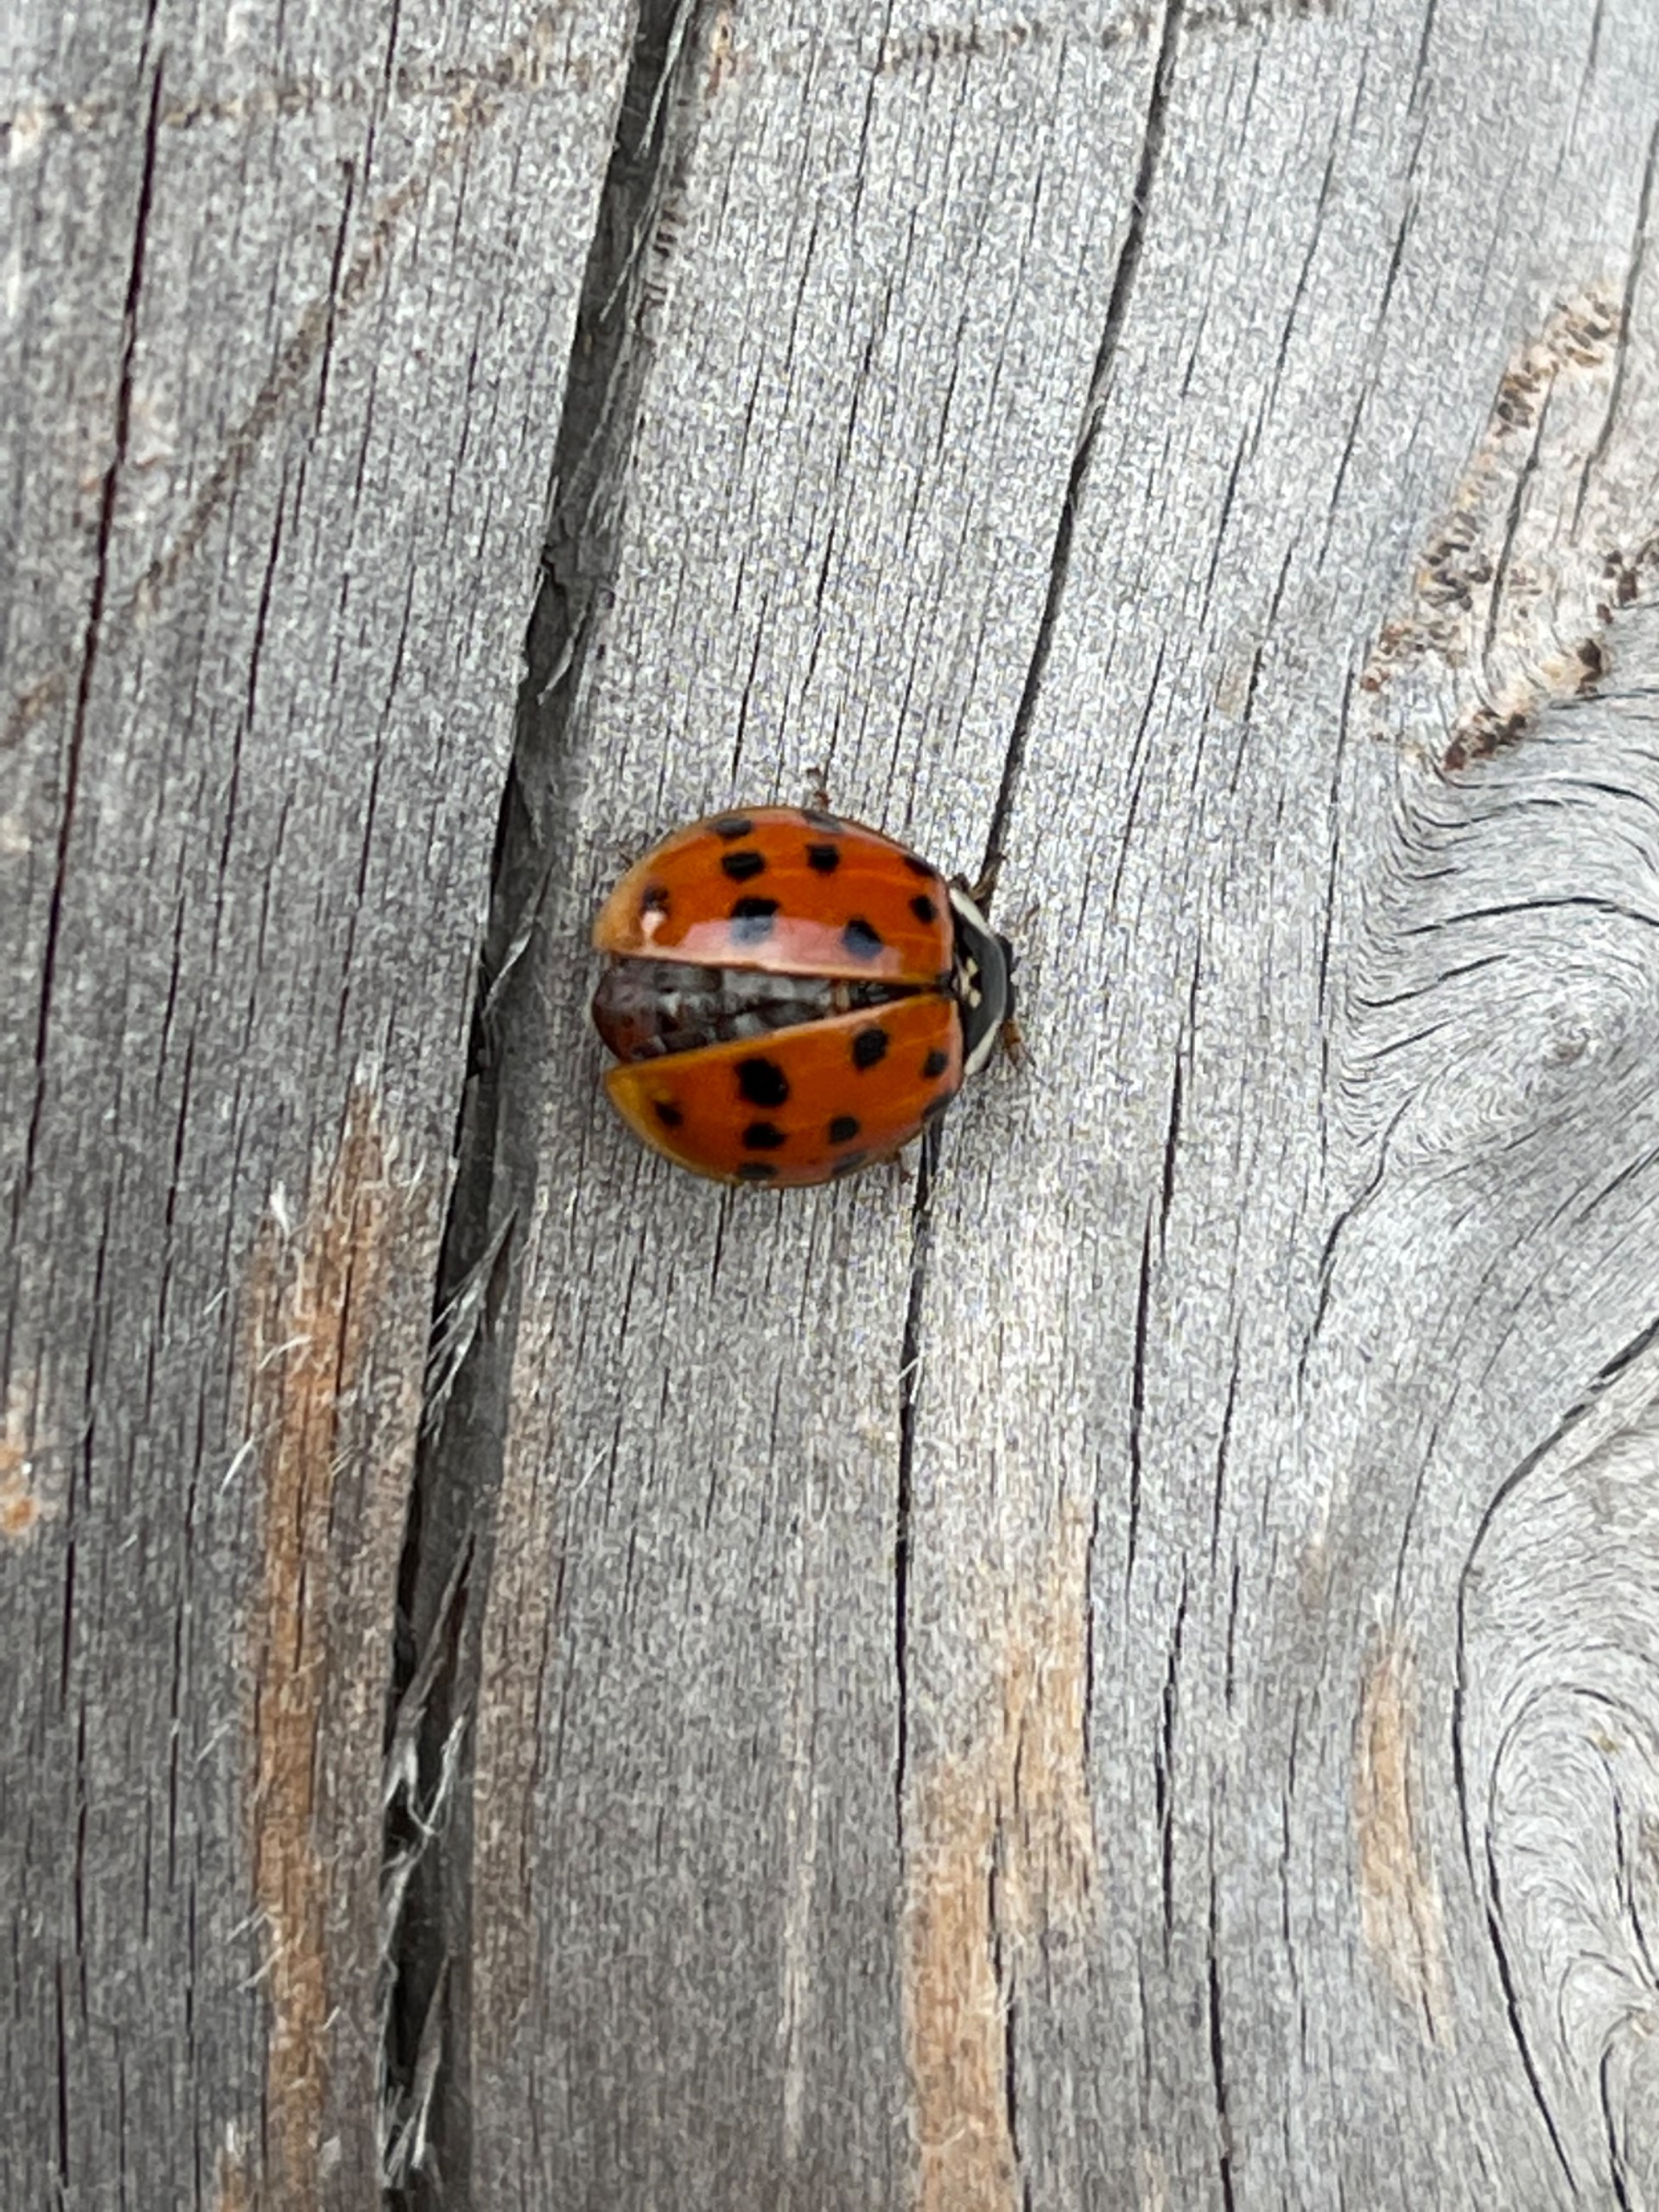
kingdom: Animalia
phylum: Arthropoda
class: Insecta
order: Coleoptera
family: Coccinellidae
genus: Harmonia
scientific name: Harmonia axyridis
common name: Harlekinmariehøne
